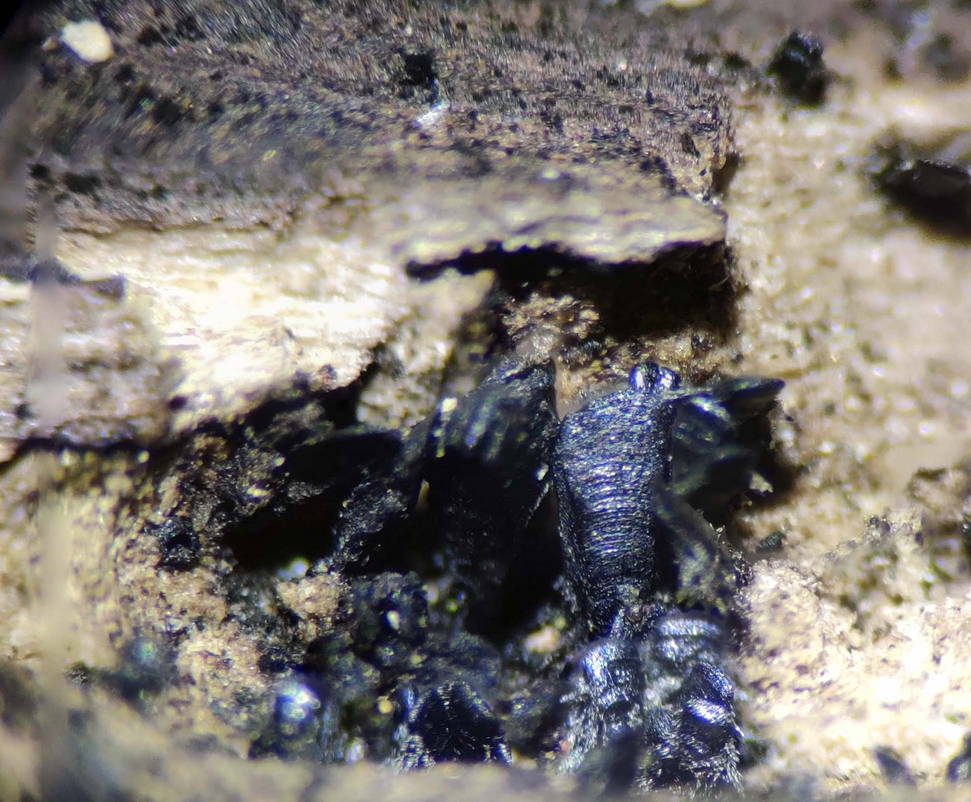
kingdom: Fungi
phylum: Ascomycota
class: Eurotiomycetes
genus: Glyphium
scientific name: Glyphium elatum
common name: kuløkse
